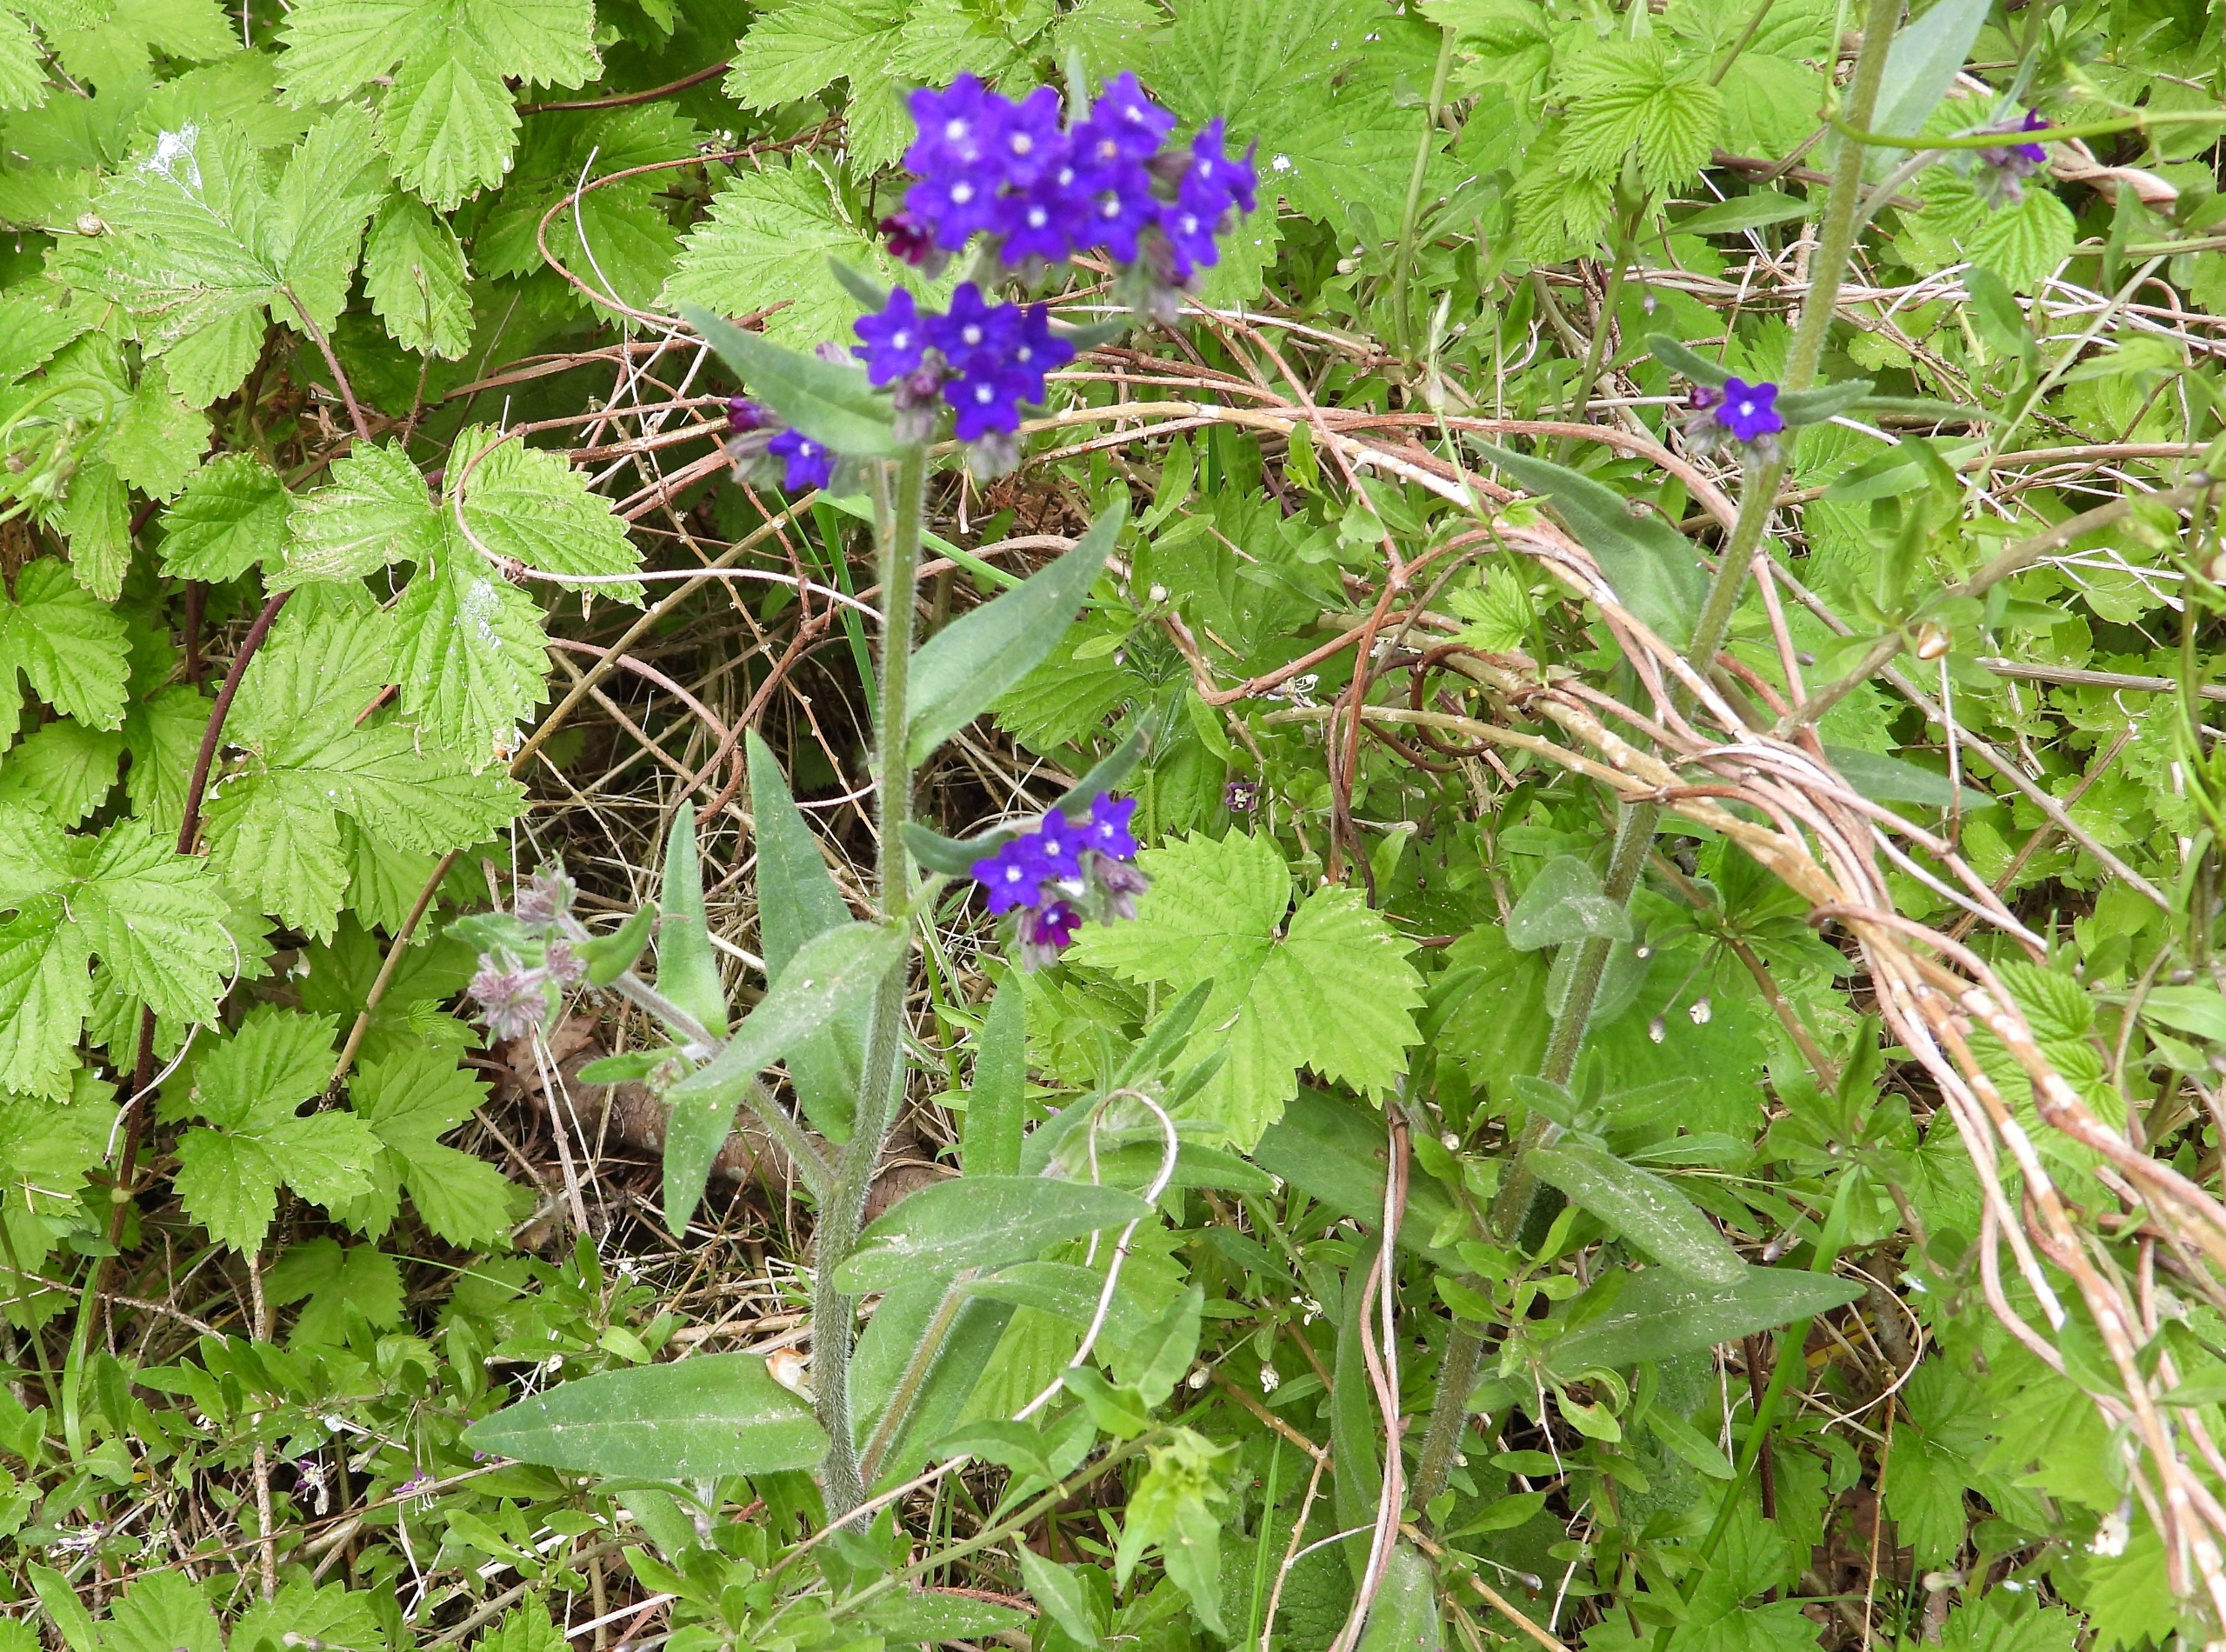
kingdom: Plantae
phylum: Tracheophyta
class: Magnoliopsida
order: Boraginales
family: Boraginaceae
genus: Anchusa
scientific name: Anchusa officinalis
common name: Læge-oksetunge
